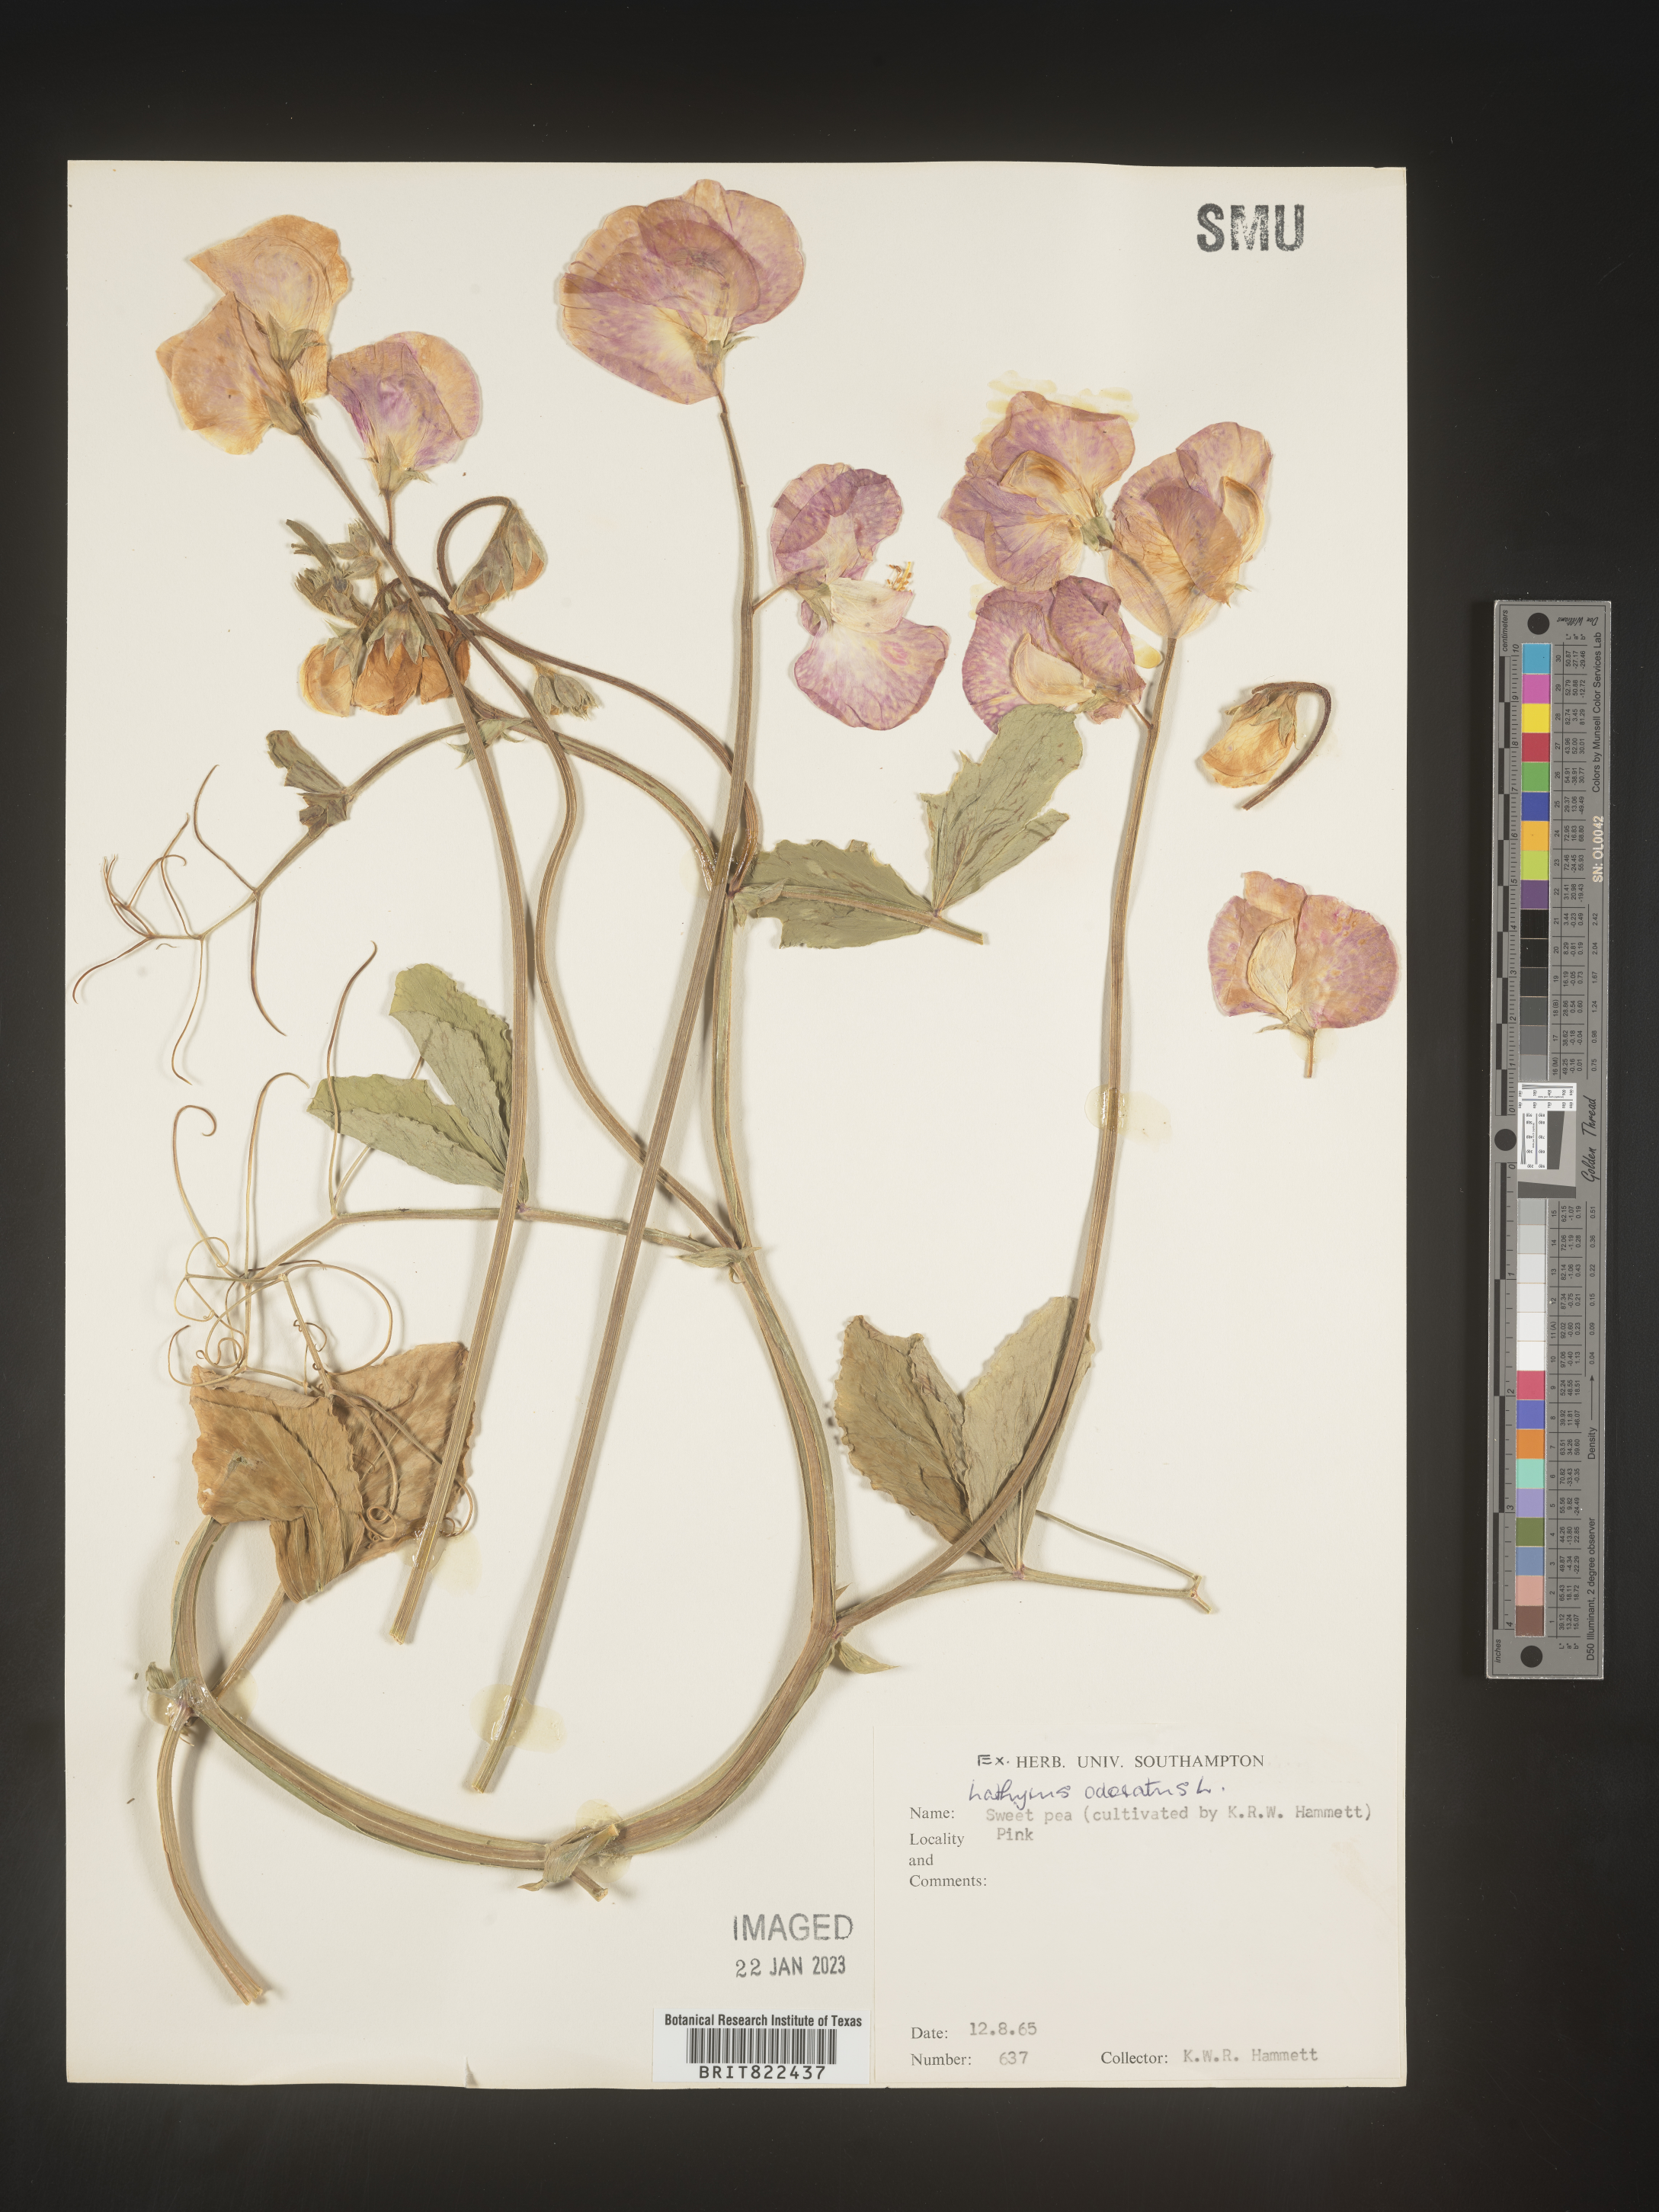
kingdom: Plantae
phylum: Tracheophyta
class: Magnoliopsida
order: Fabales
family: Fabaceae
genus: Lathyrus
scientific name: Lathyrus
